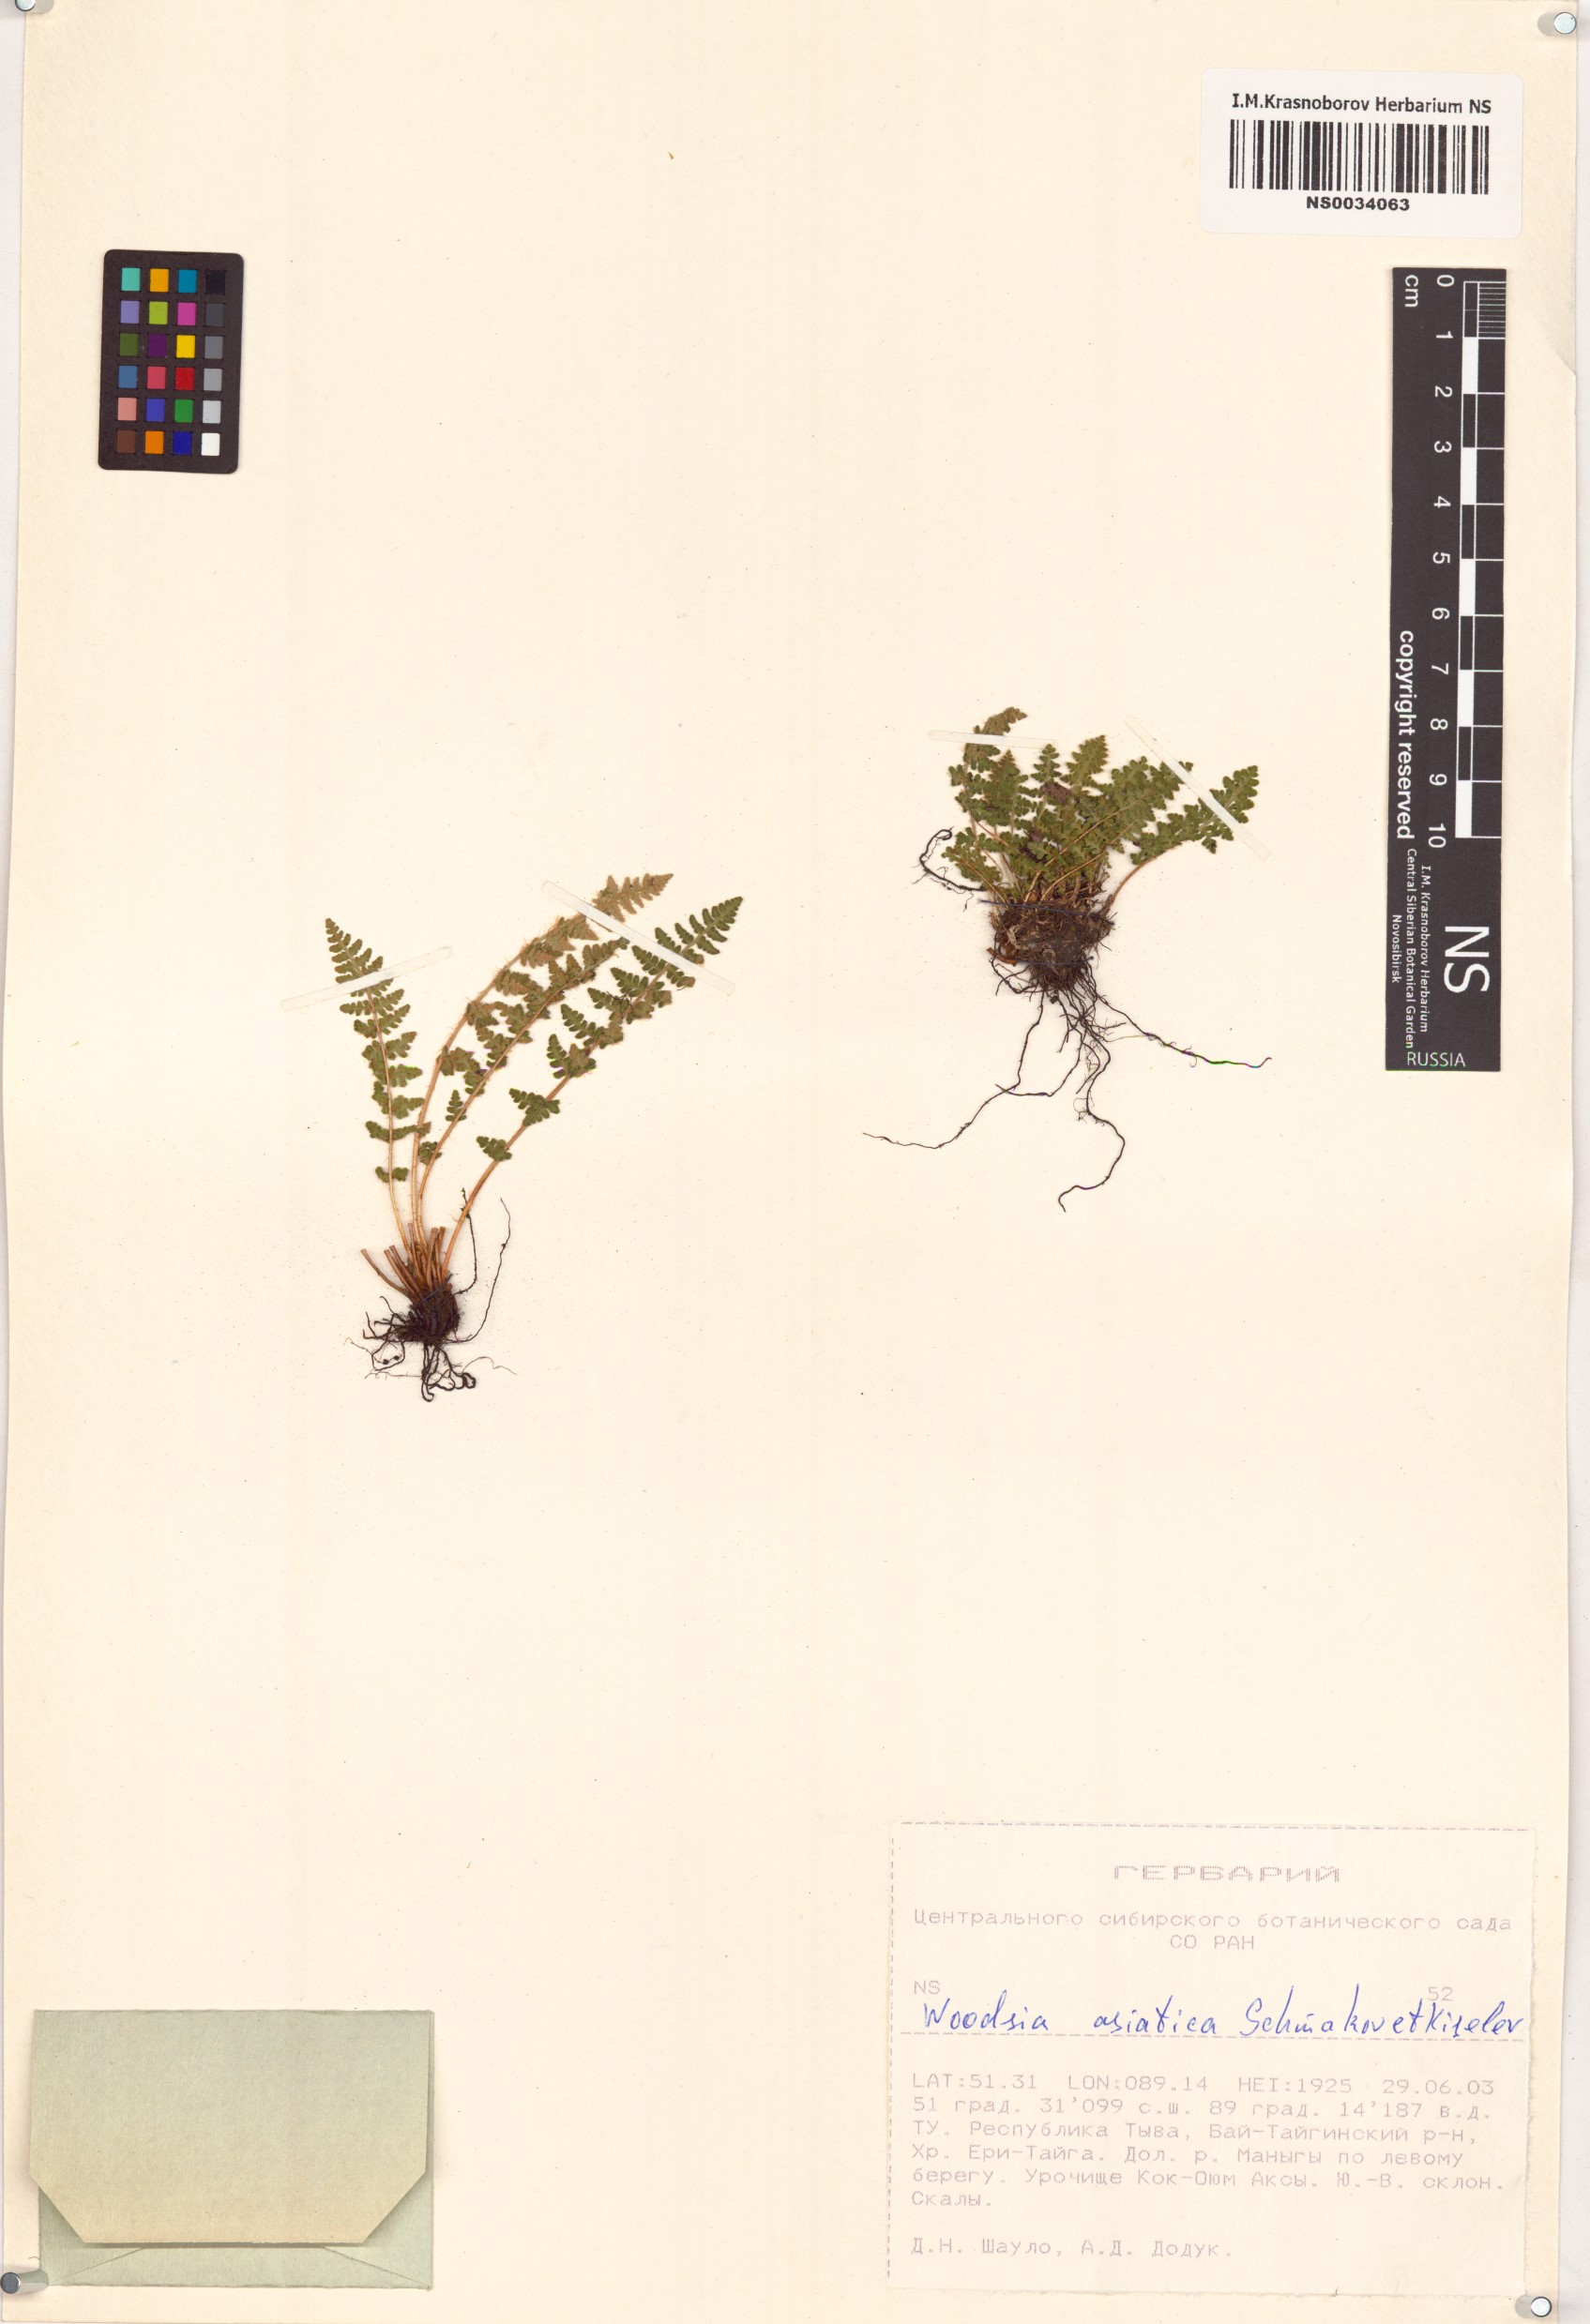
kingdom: Plantae
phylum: Tracheophyta
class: Polypodiopsida
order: Polypodiales
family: Woodsiaceae
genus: Woodsia
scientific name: Woodsia asiatica
